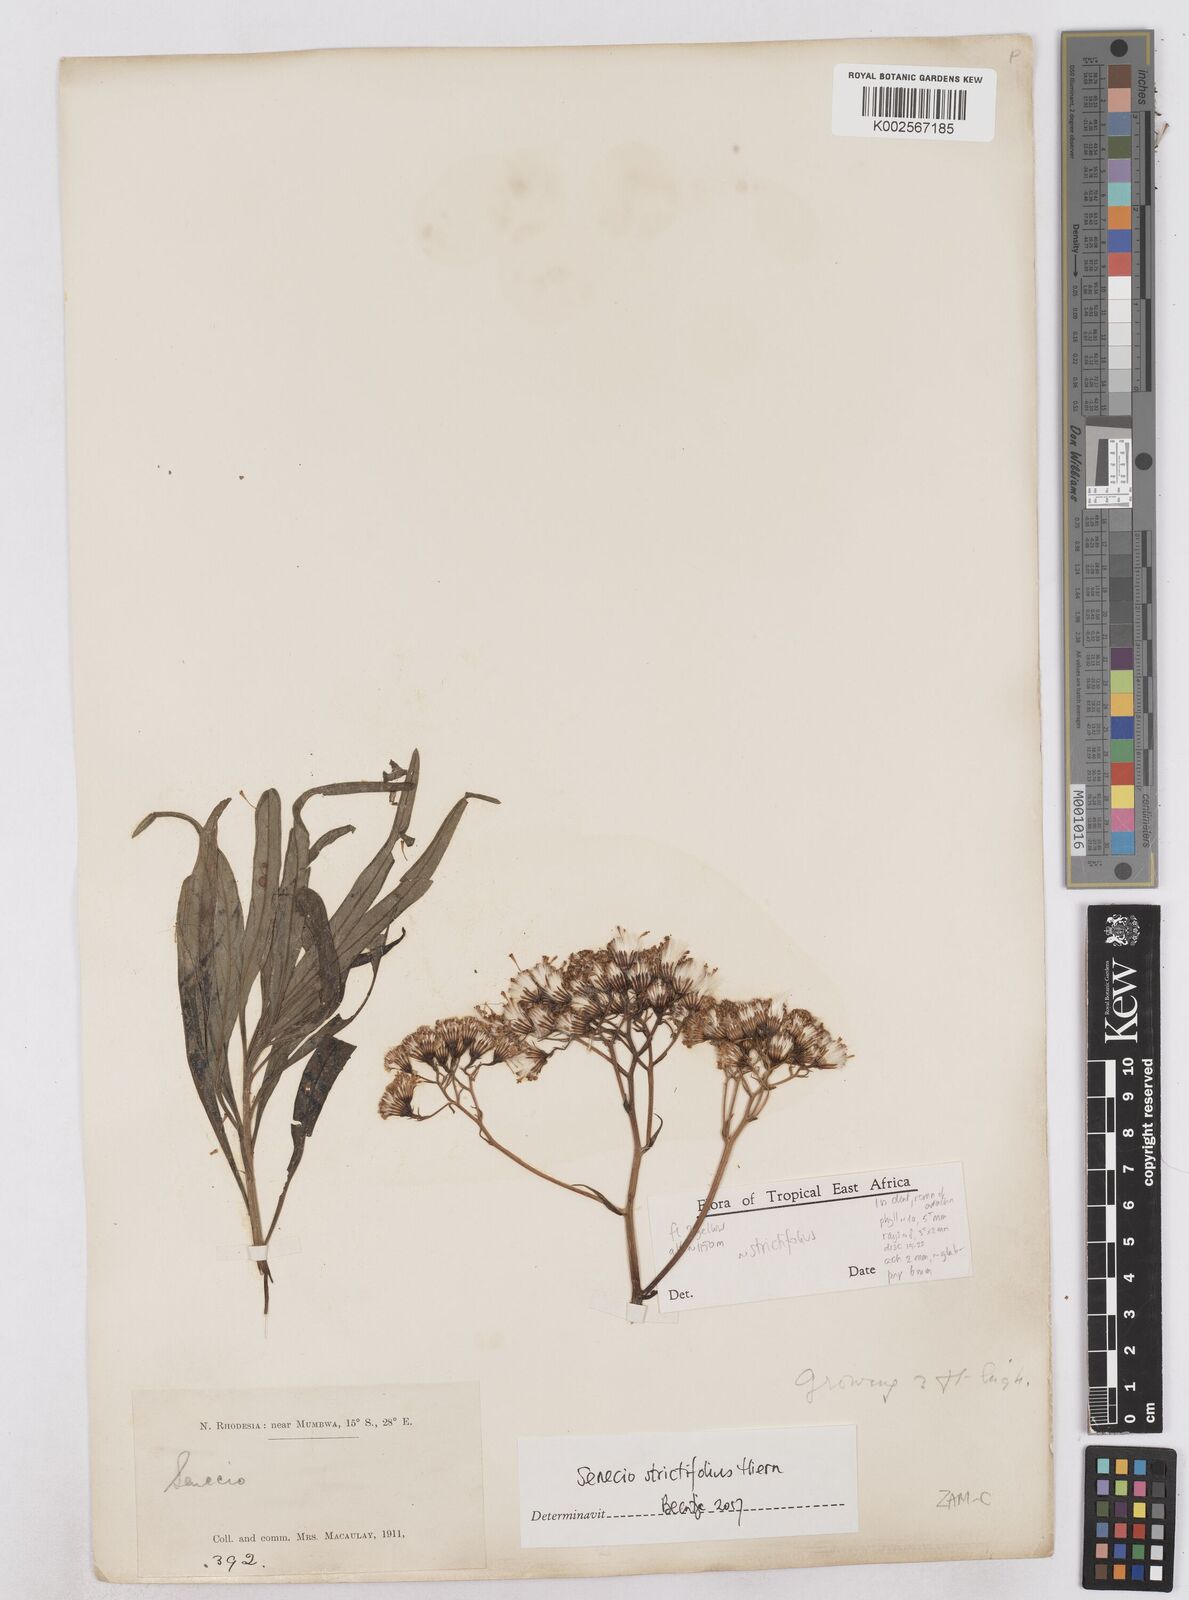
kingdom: Plantae
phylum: Tracheophyta
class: Magnoliopsida
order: Asterales
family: Asteraceae
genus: Senecio
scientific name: Senecio strictifolius
